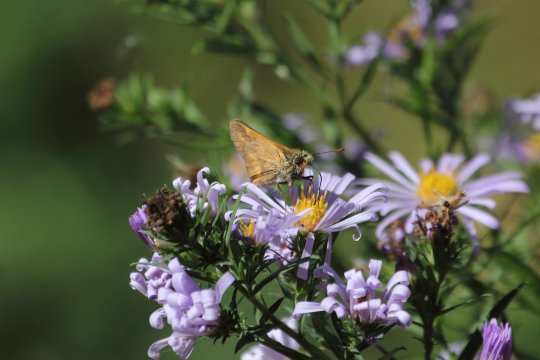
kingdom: Animalia
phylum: Arthropoda
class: Insecta
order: Lepidoptera
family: Hesperiidae
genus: Ochlodes
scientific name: Ochlodes sylvanoides
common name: Woodland Skipper
